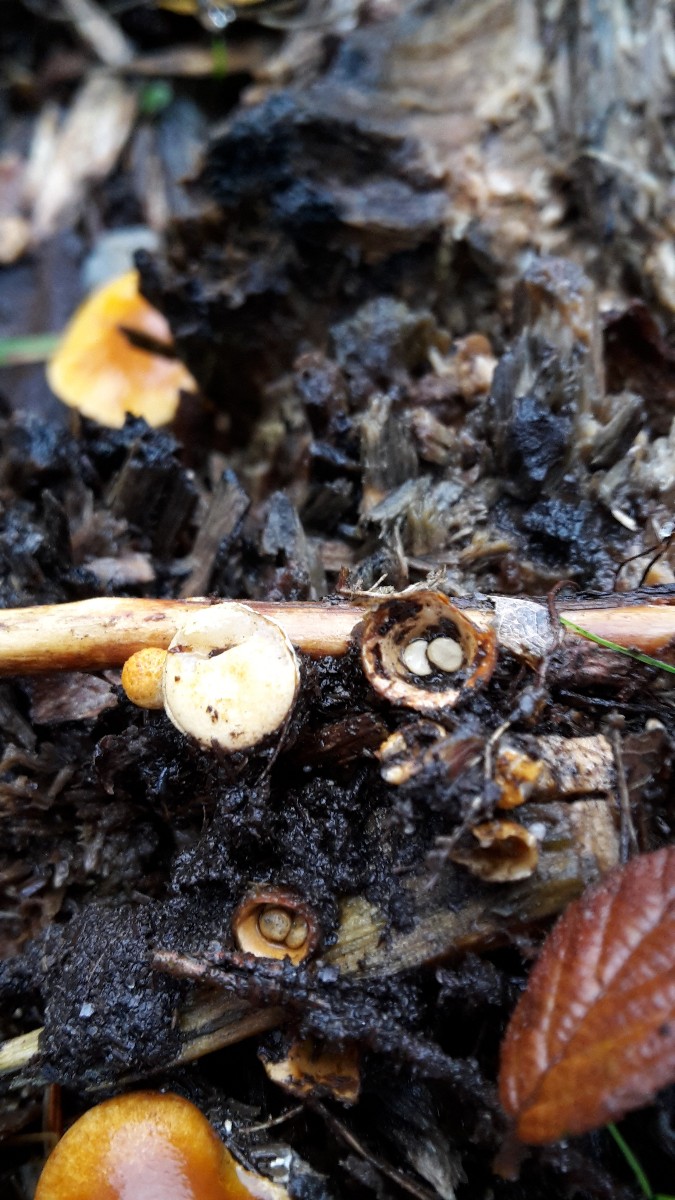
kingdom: Fungi
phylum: Basidiomycota
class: Agaricomycetes
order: Agaricales
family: Nidulariaceae
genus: Crucibulum
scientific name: Crucibulum crucibuliforme
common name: krukkesvamp
